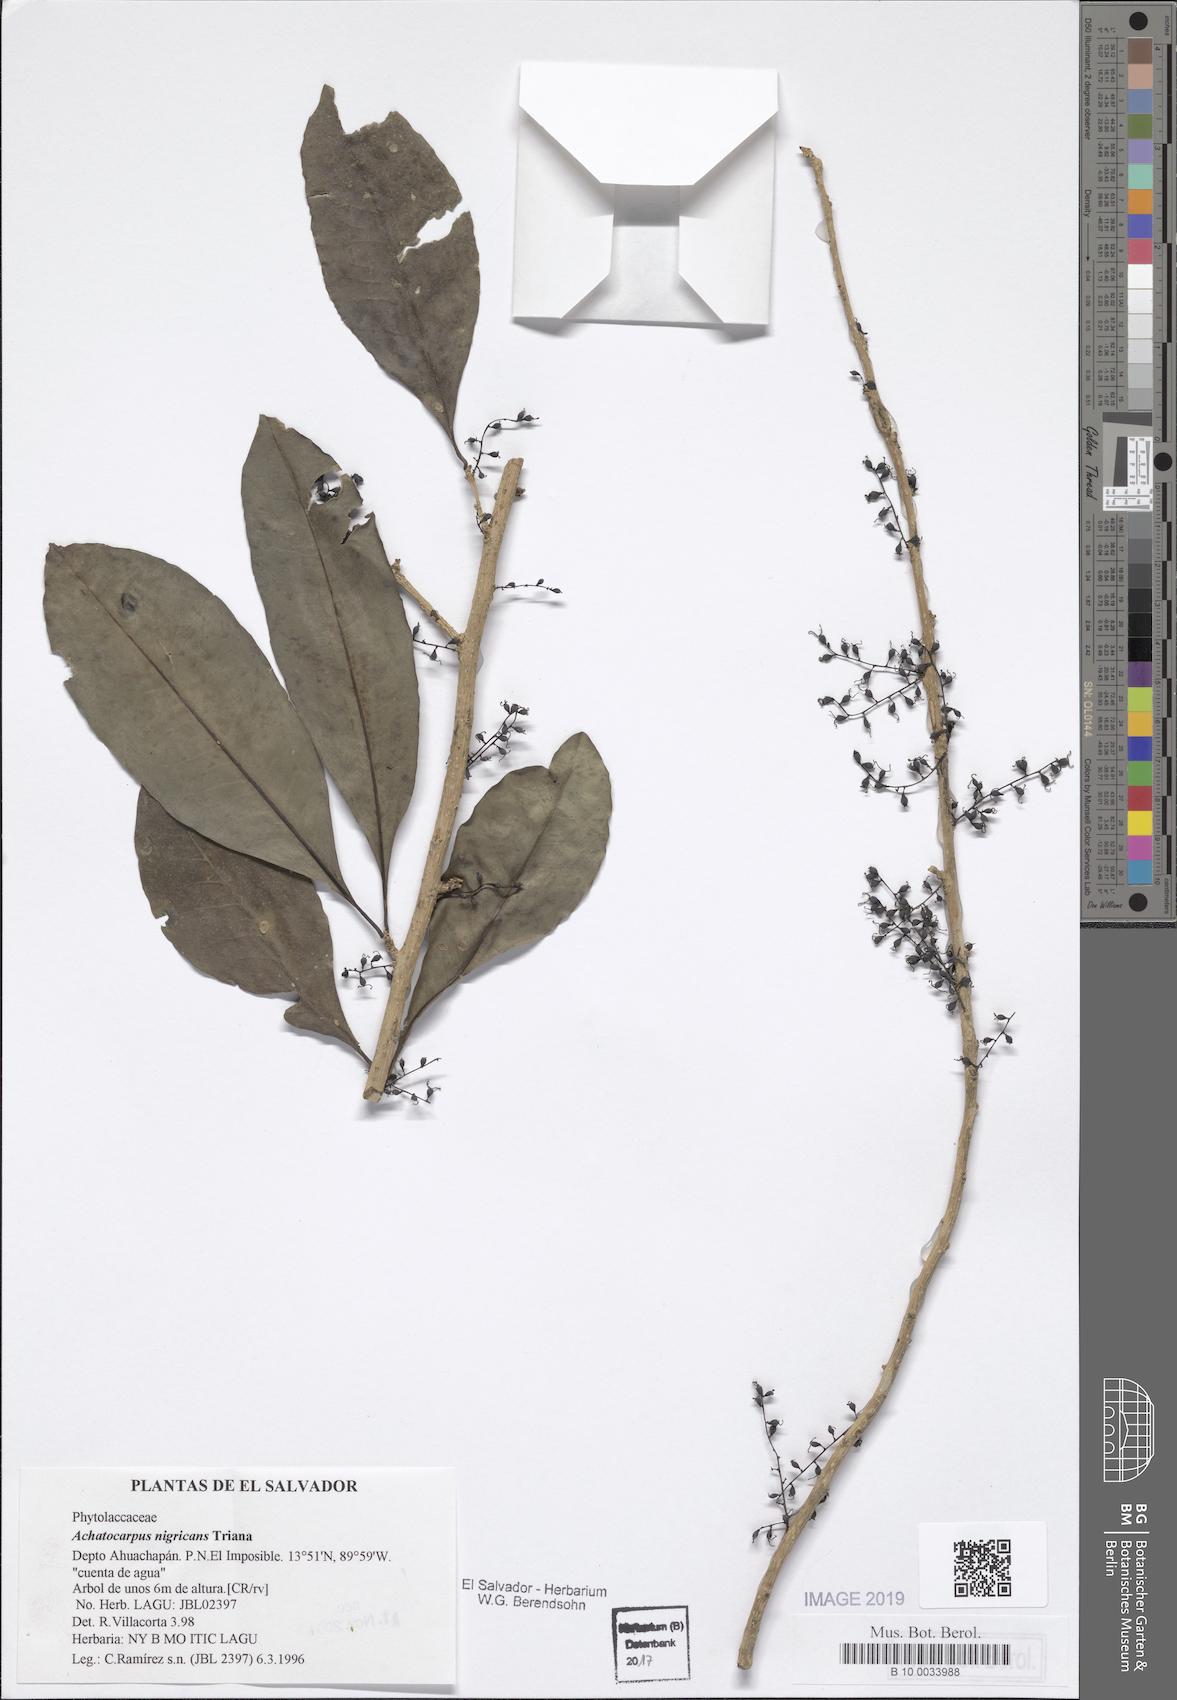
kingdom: Plantae
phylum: Tracheophyta
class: Magnoliopsida
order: Caryophyllales
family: Achatocarpaceae
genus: Achatocarpus
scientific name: Achatocarpus nigricans
